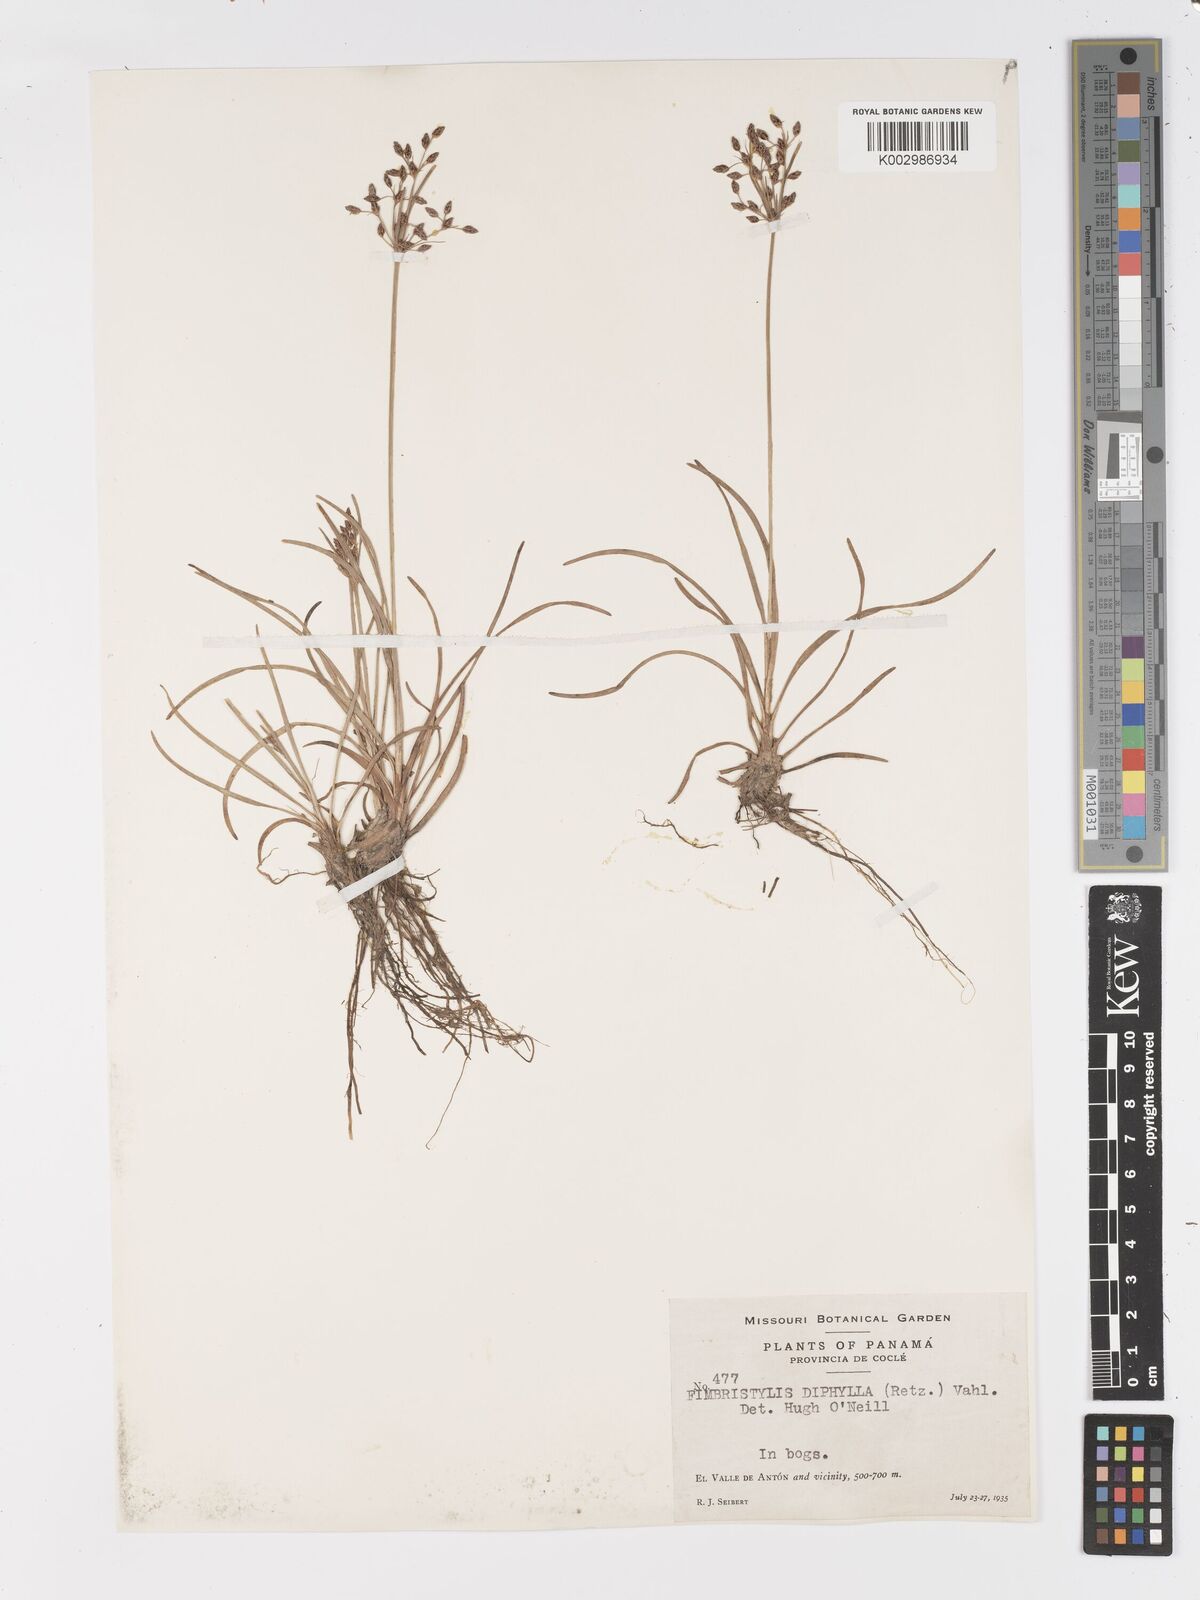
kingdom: Plantae
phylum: Tracheophyta
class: Liliopsida
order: Poales
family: Cyperaceae
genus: Fimbristylis
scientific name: Fimbristylis dichotoma
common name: Forked fimbry
